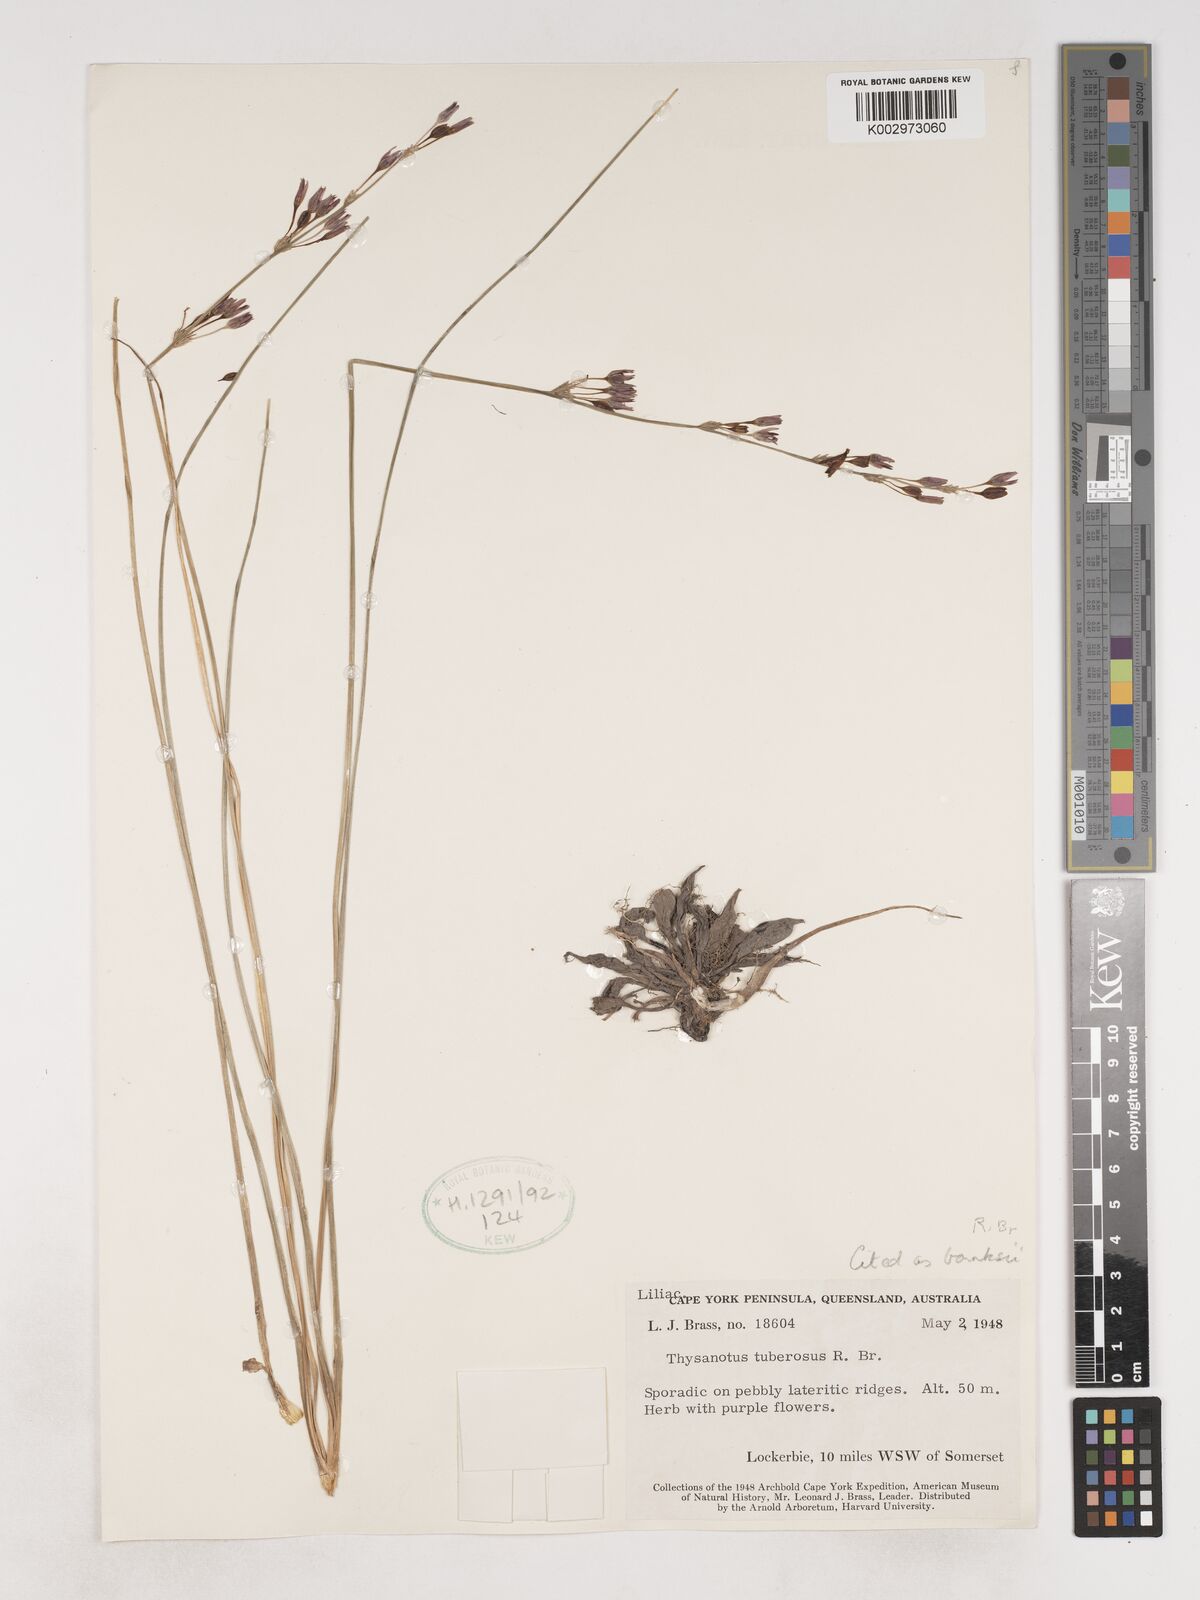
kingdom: Plantae
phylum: Tracheophyta
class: Liliopsida
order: Asparagales
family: Asparagaceae
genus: Thysanotus
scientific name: Thysanotus banksii
